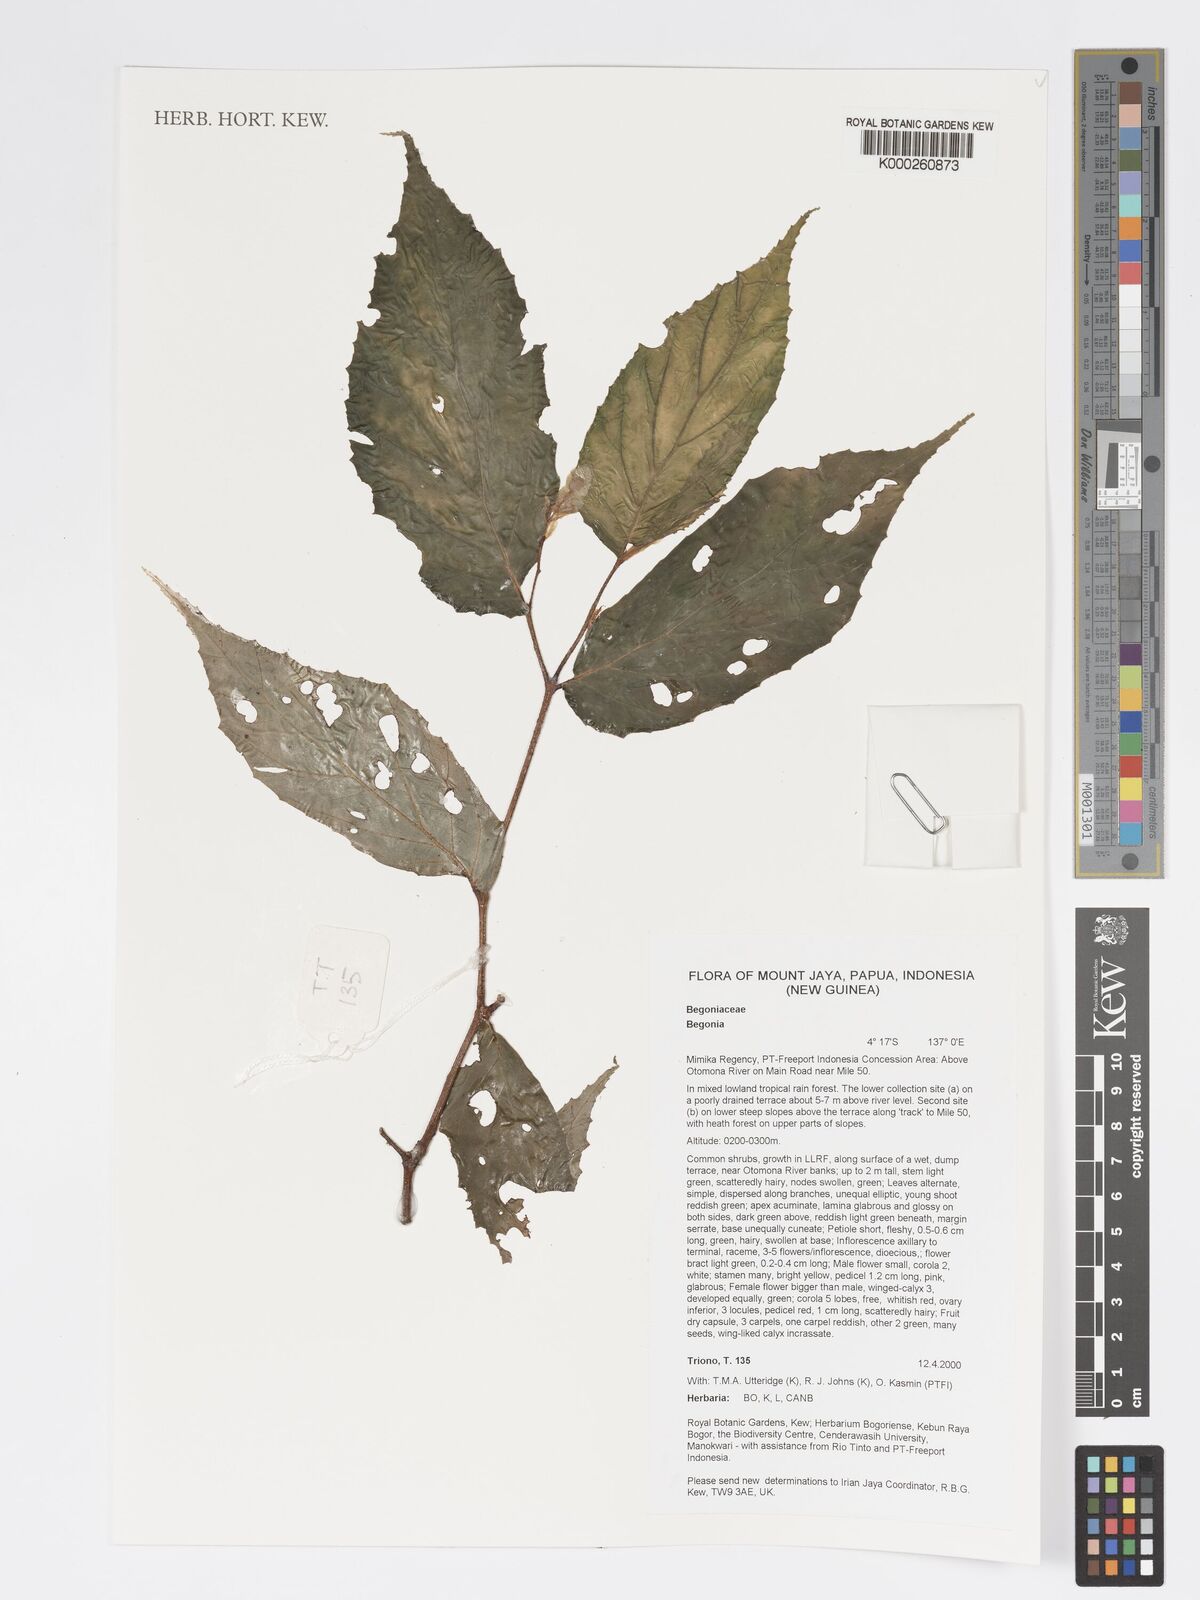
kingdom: Plantae
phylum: Tracheophyta
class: Magnoliopsida
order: Cucurbitales
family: Begoniaceae
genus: Begonia
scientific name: Begonia
